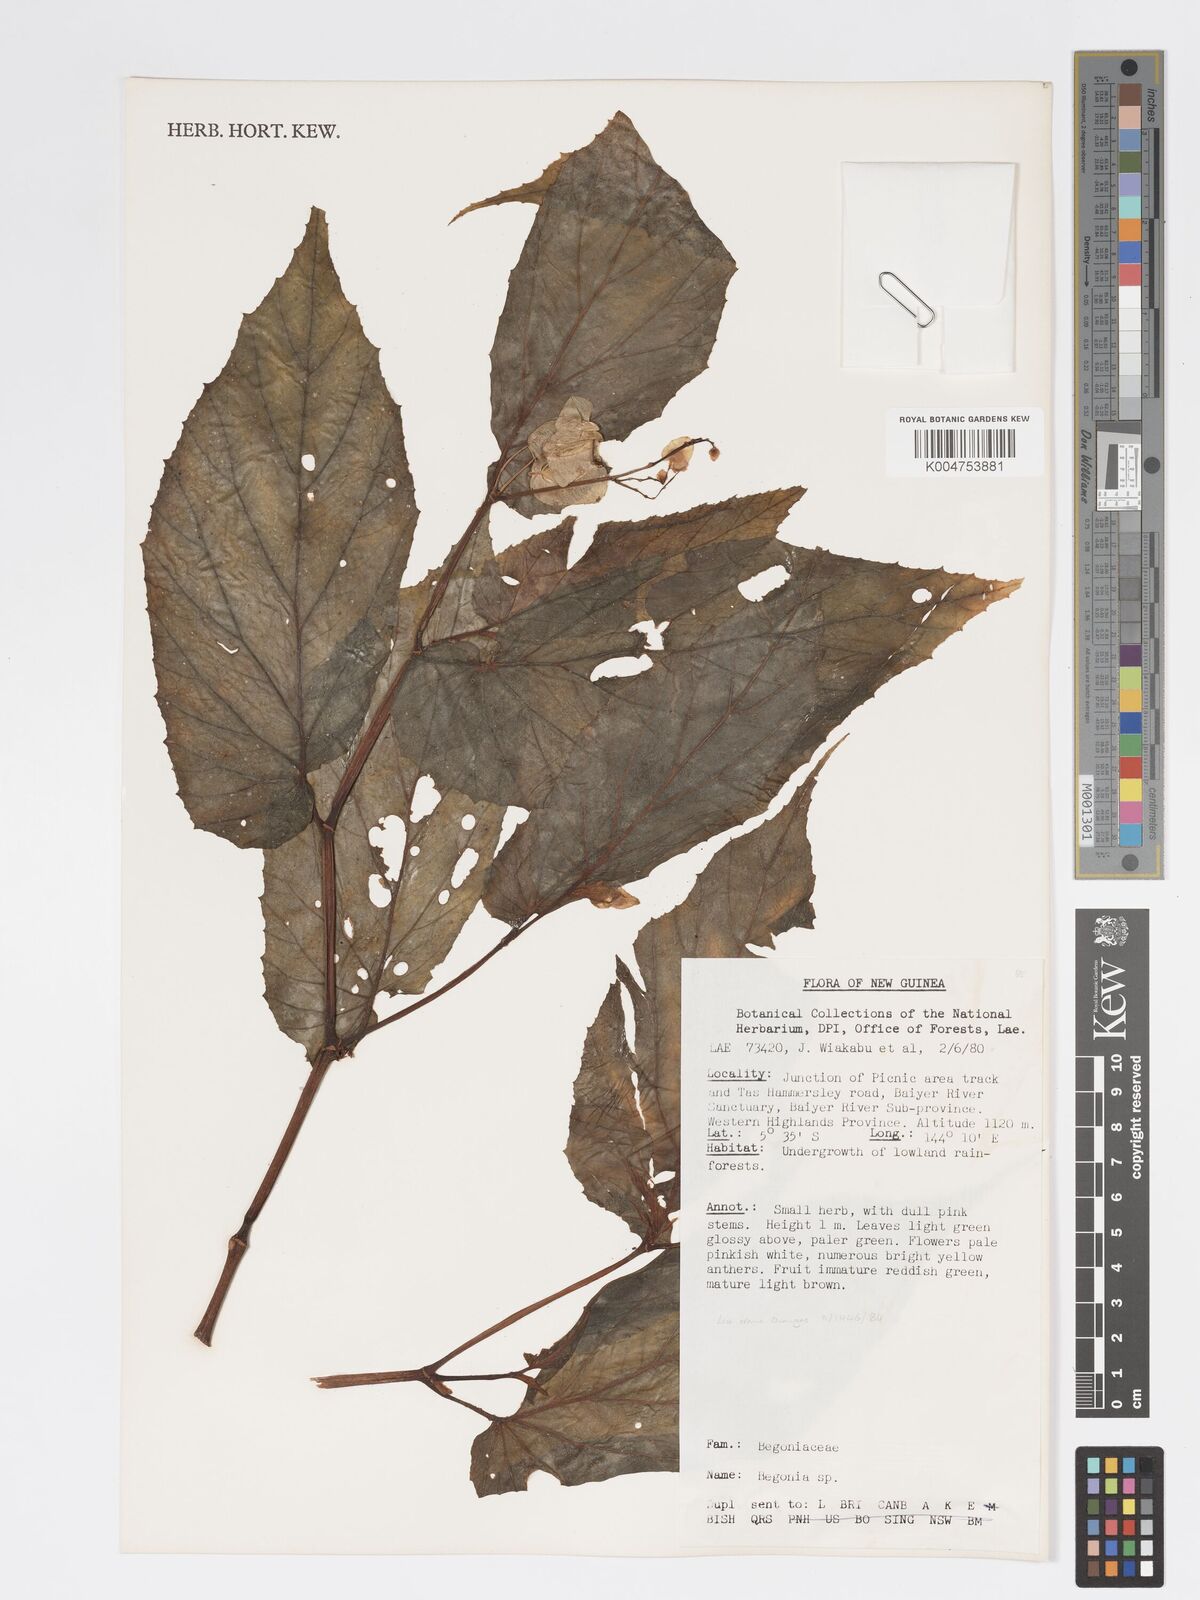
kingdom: Plantae
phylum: Tracheophyta
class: Magnoliopsida
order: Cucurbitales
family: Begoniaceae
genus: Begonia
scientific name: Begonia
